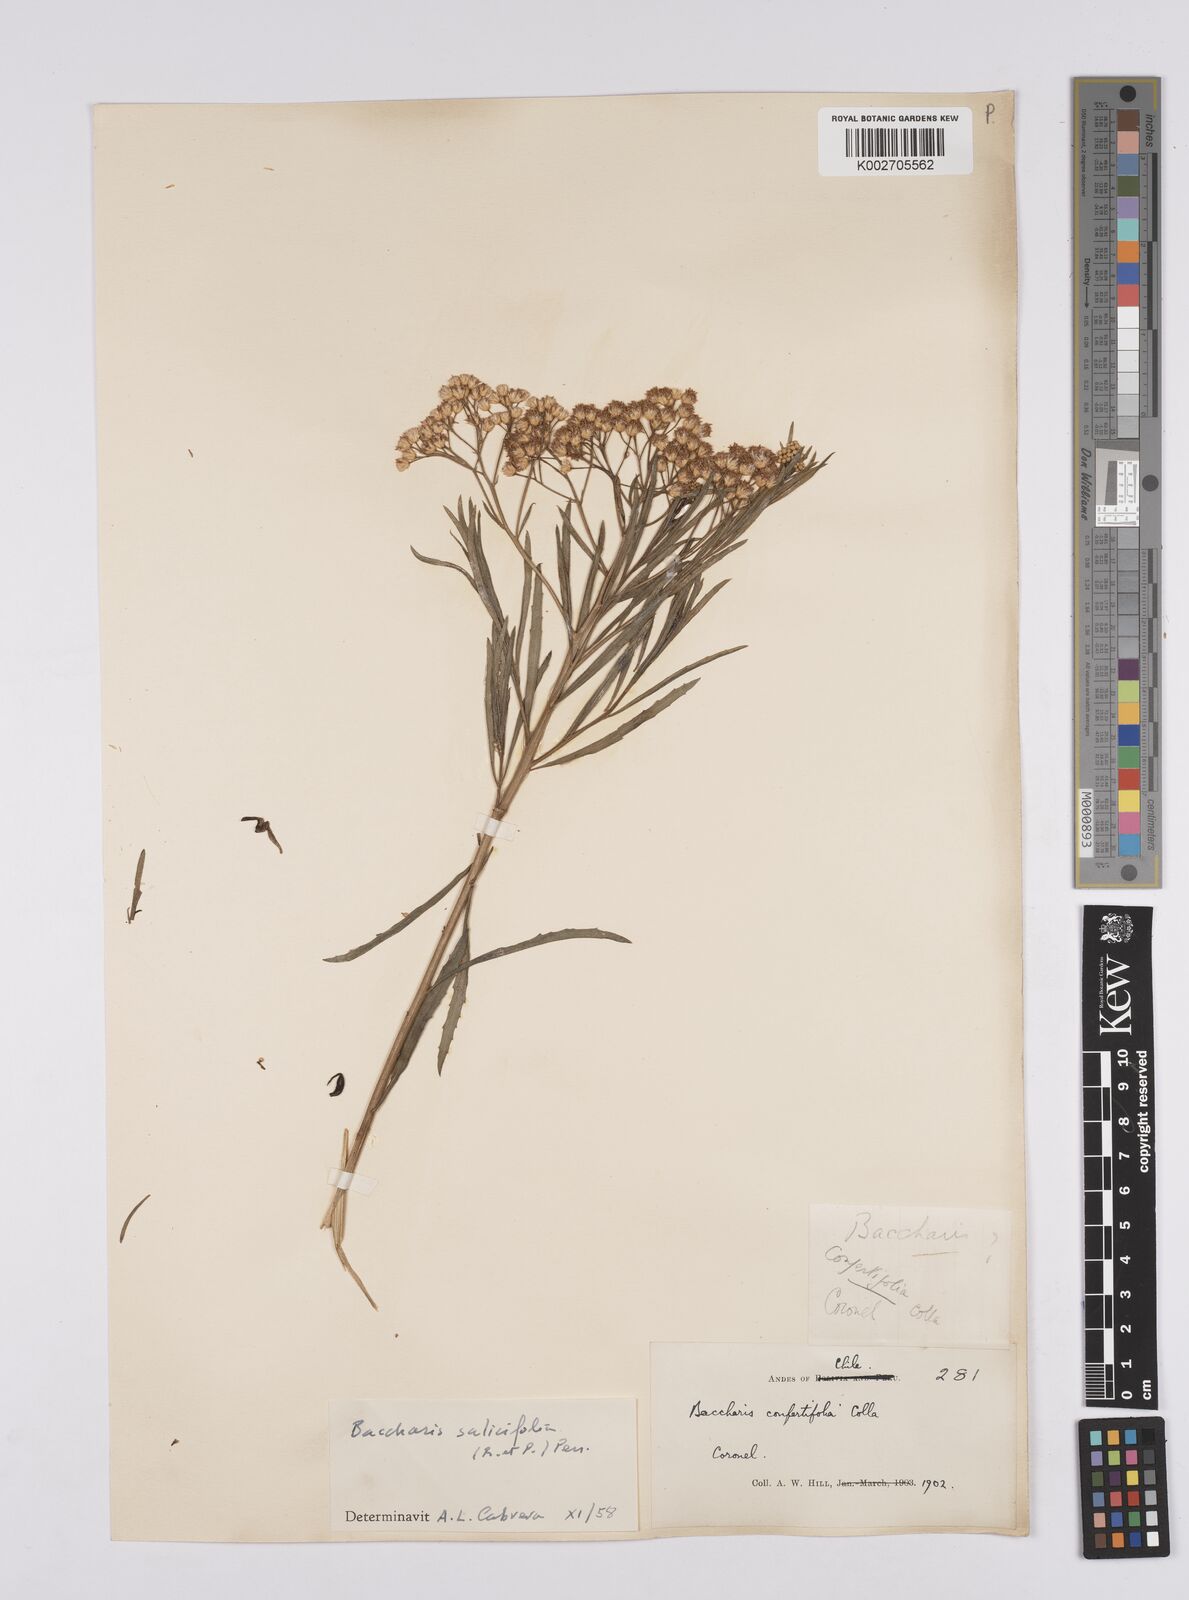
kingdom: Plantae
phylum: Tracheophyta
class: Magnoliopsida
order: Asterales
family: Asteraceae
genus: Baccharis
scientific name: Baccharis salicifolia
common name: Sticky baccharis
